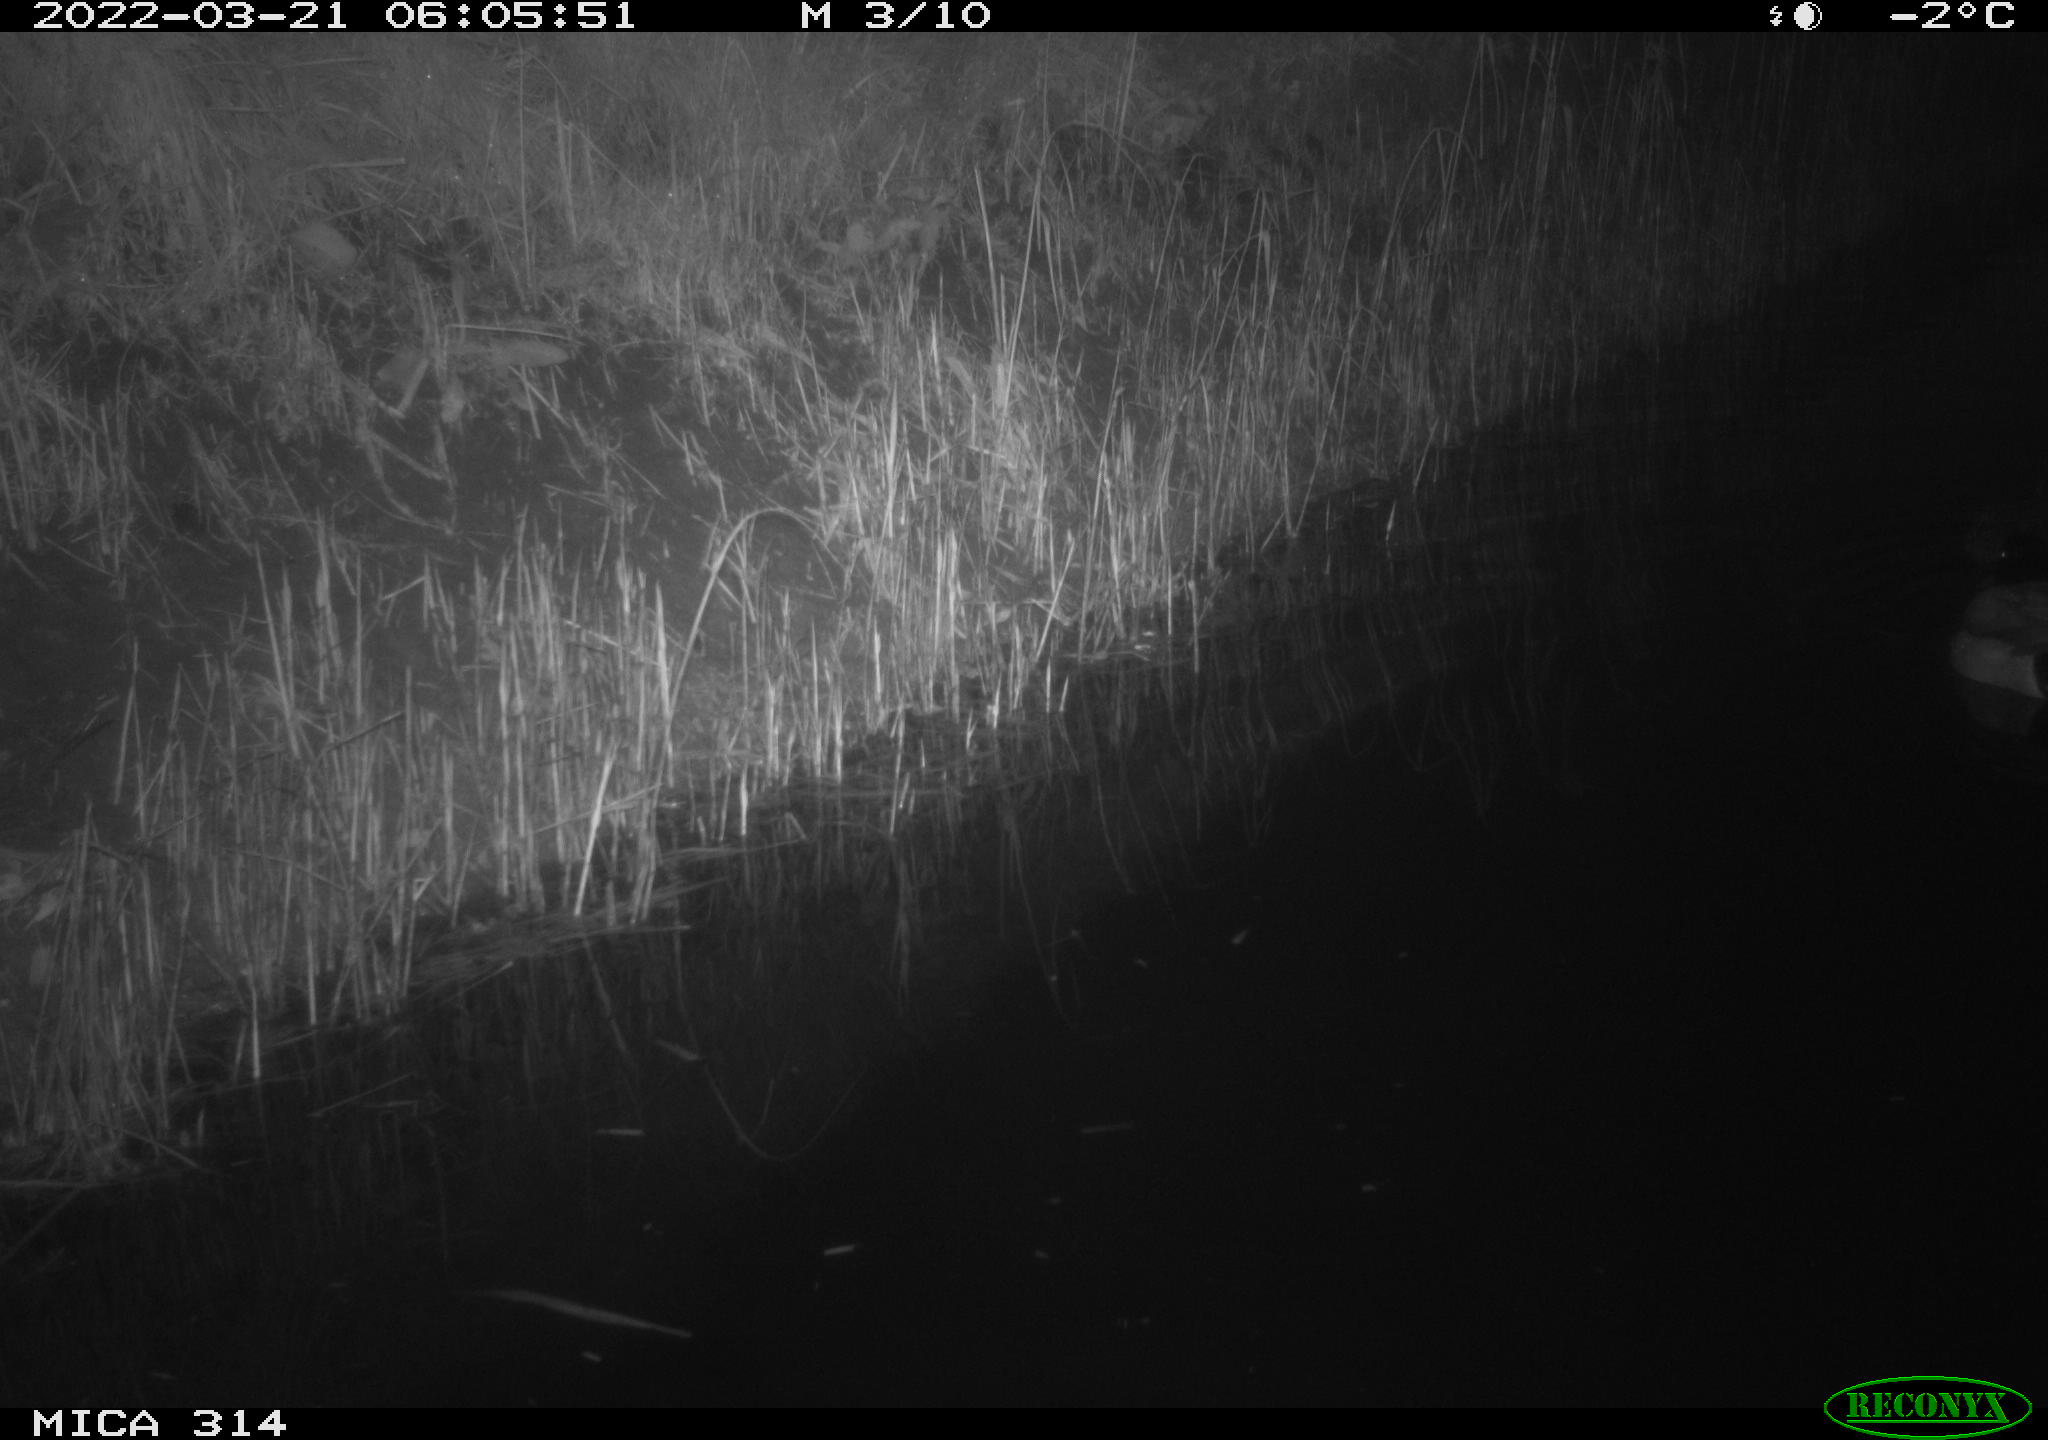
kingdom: Animalia
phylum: Chordata
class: Aves
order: Anseriformes
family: Anatidae
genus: Anas
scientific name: Anas platyrhynchos
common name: Mallard
